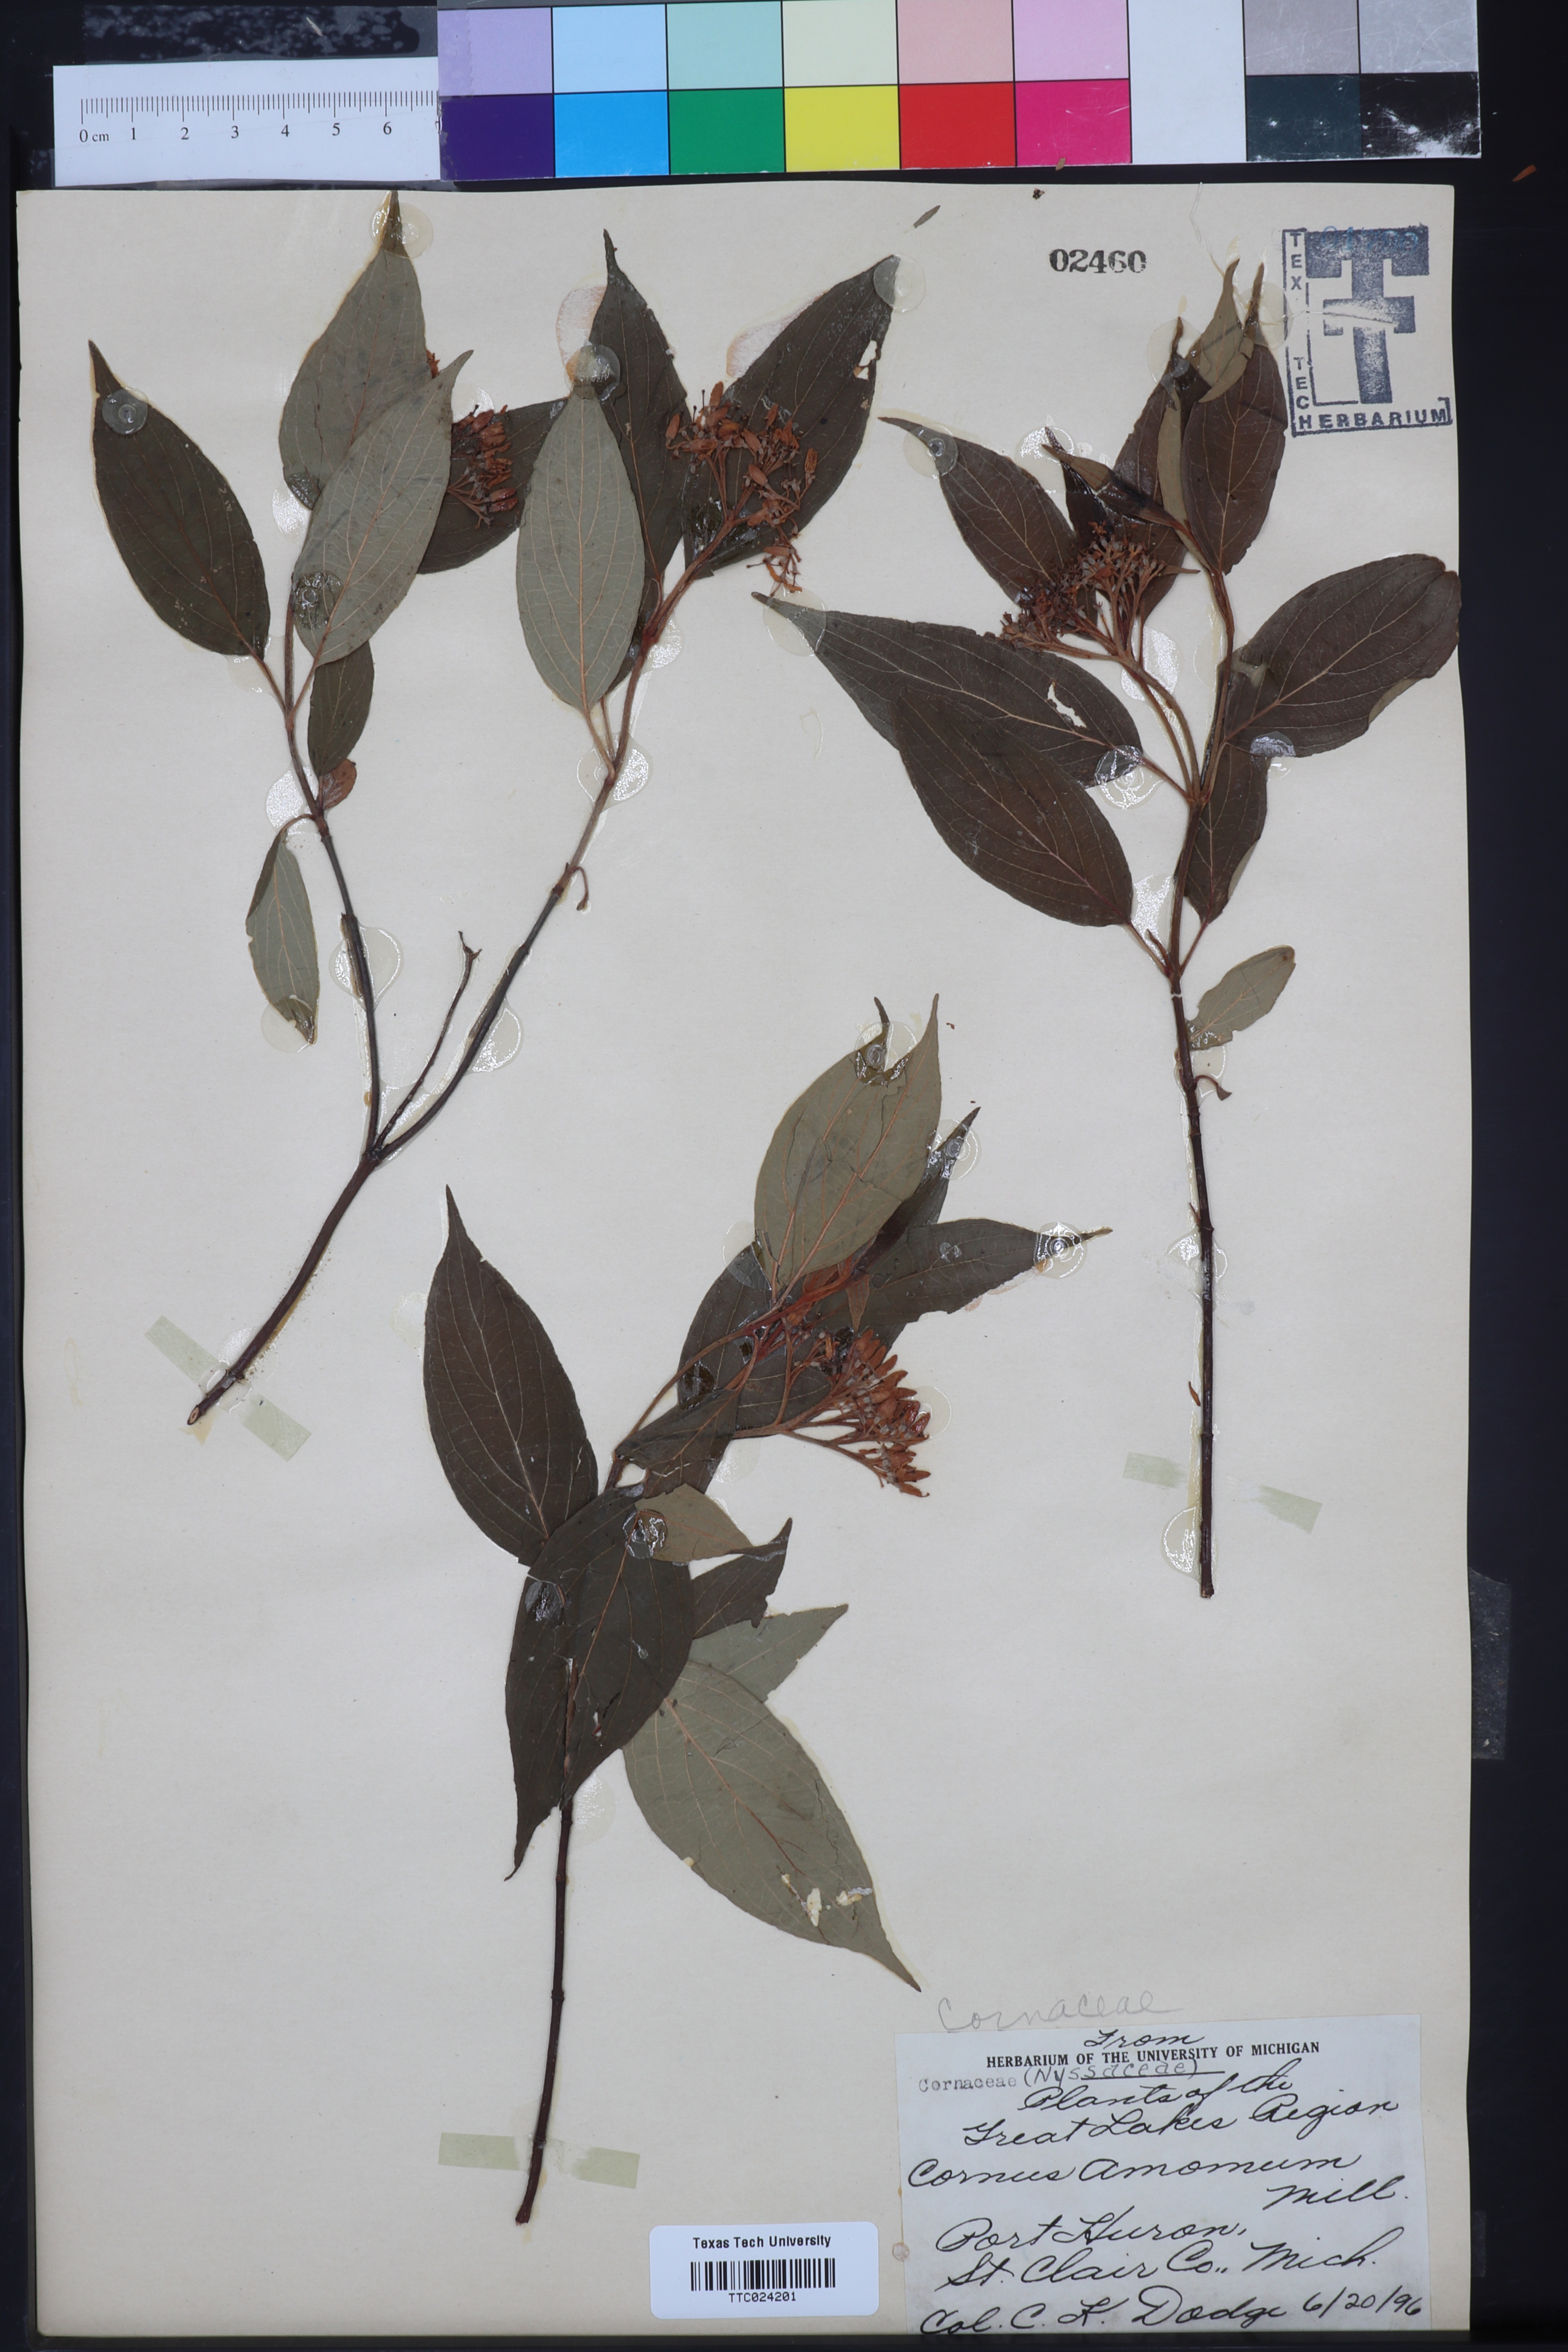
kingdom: Plantae
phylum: Tracheophyta
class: Magnoliopsida
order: Cornales
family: Cornaceae
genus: Cornus
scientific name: Cornus amomum
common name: Silky dogwood
